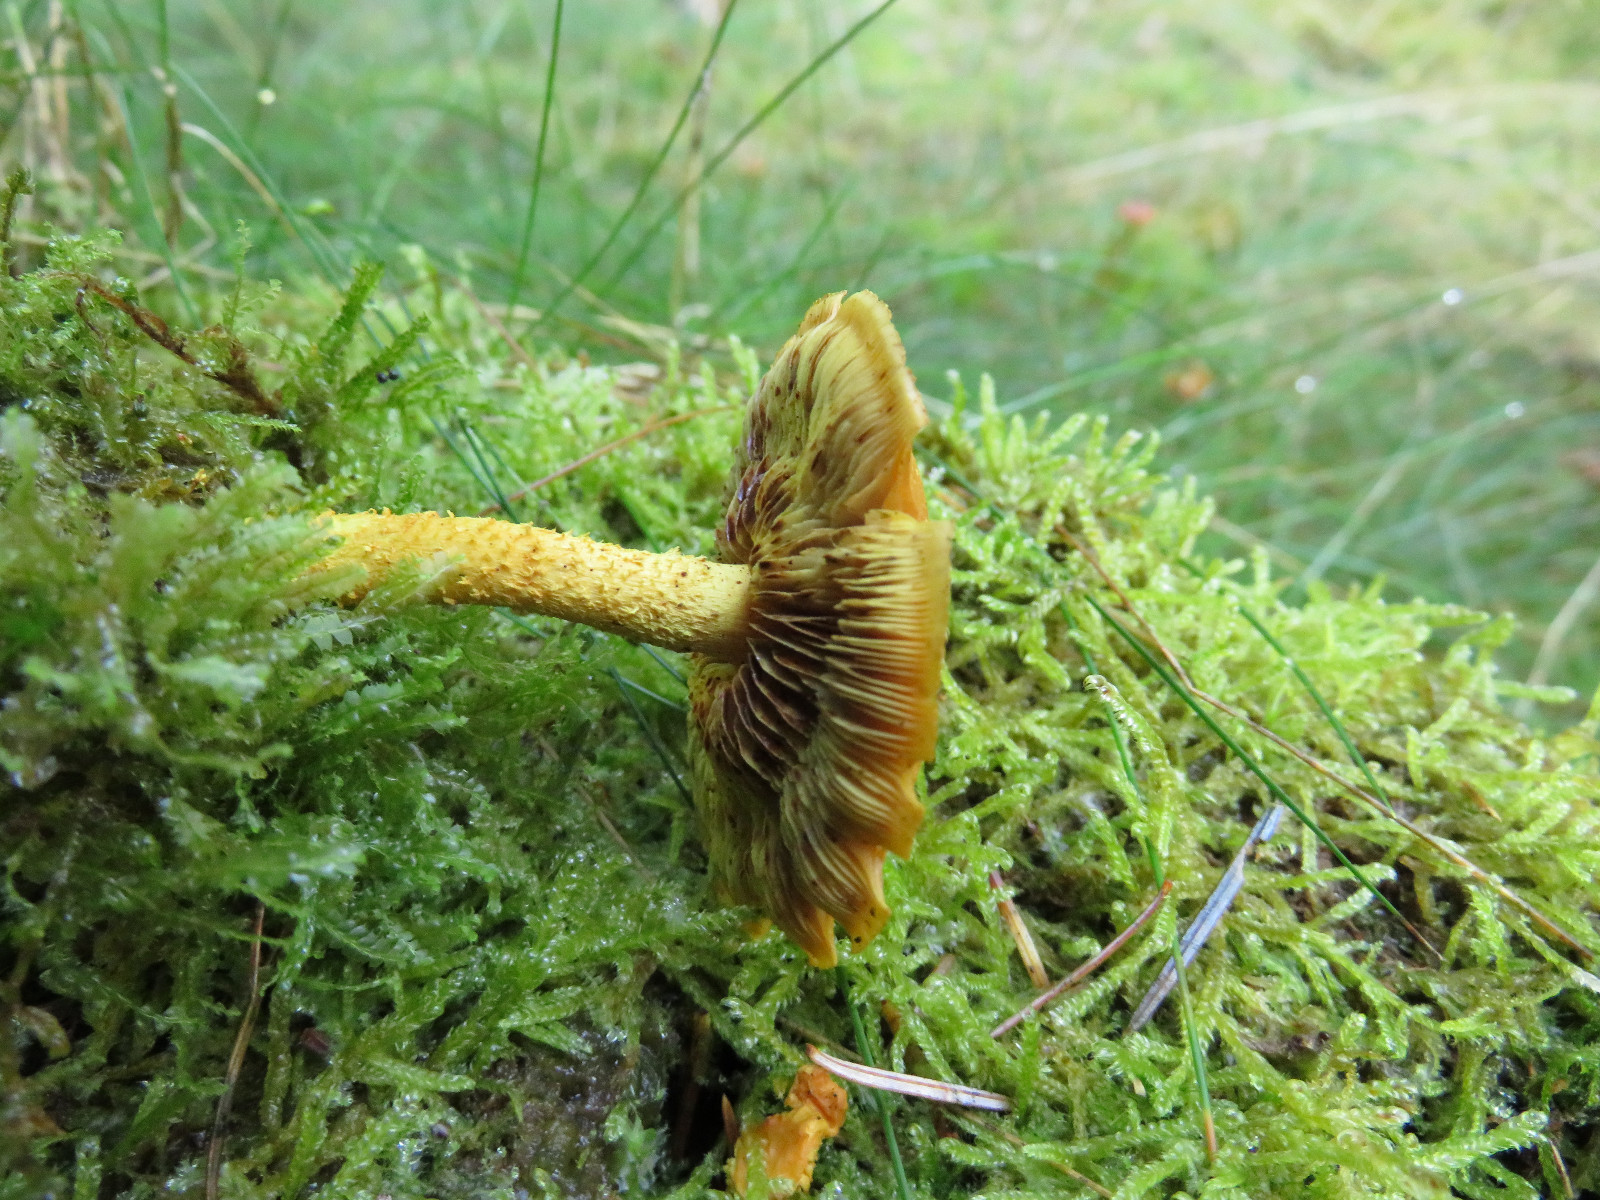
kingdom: Fungi
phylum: Basidiomycota
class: Agaricomycetes
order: Agaricales
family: Strophariaceae
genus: Pholiota
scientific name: Pholiota flammans
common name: flamme-skælhat
